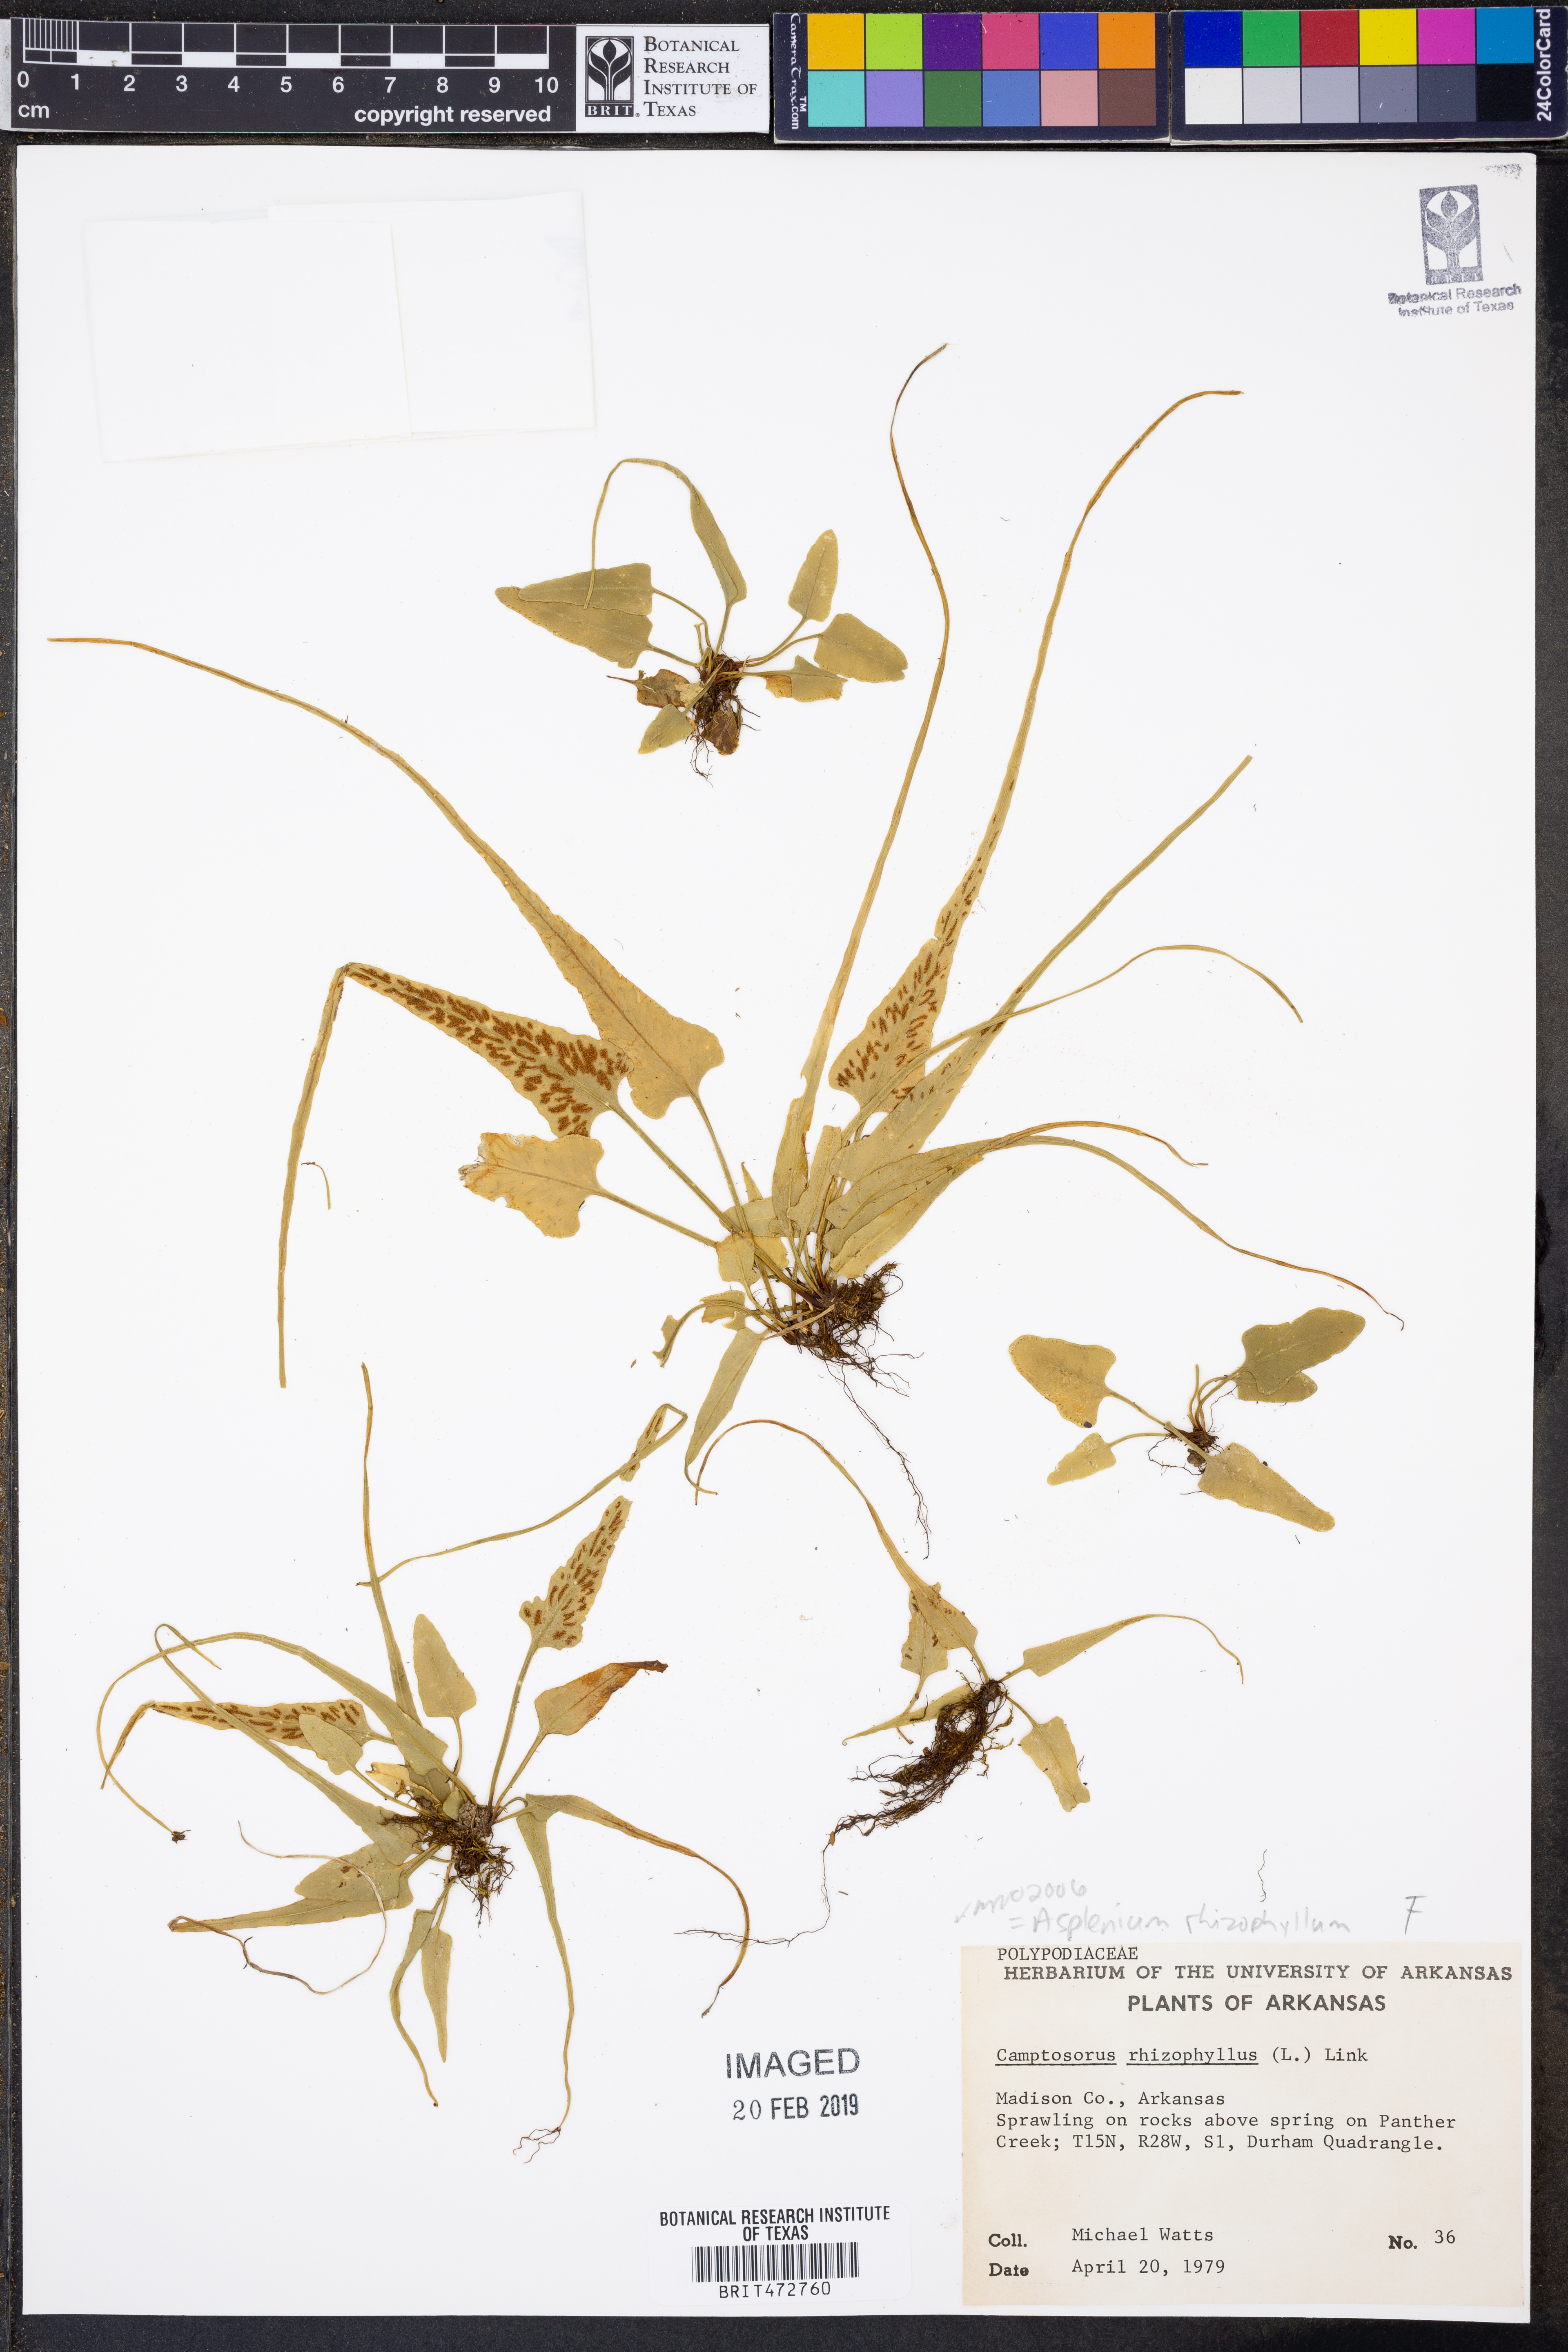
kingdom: Plantae
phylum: Tracheophyta
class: Polypodiopsida
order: Polypodiales
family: Aspleniaceae
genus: Asplenium
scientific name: Asplenium rhizophyllum
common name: Walking fern
